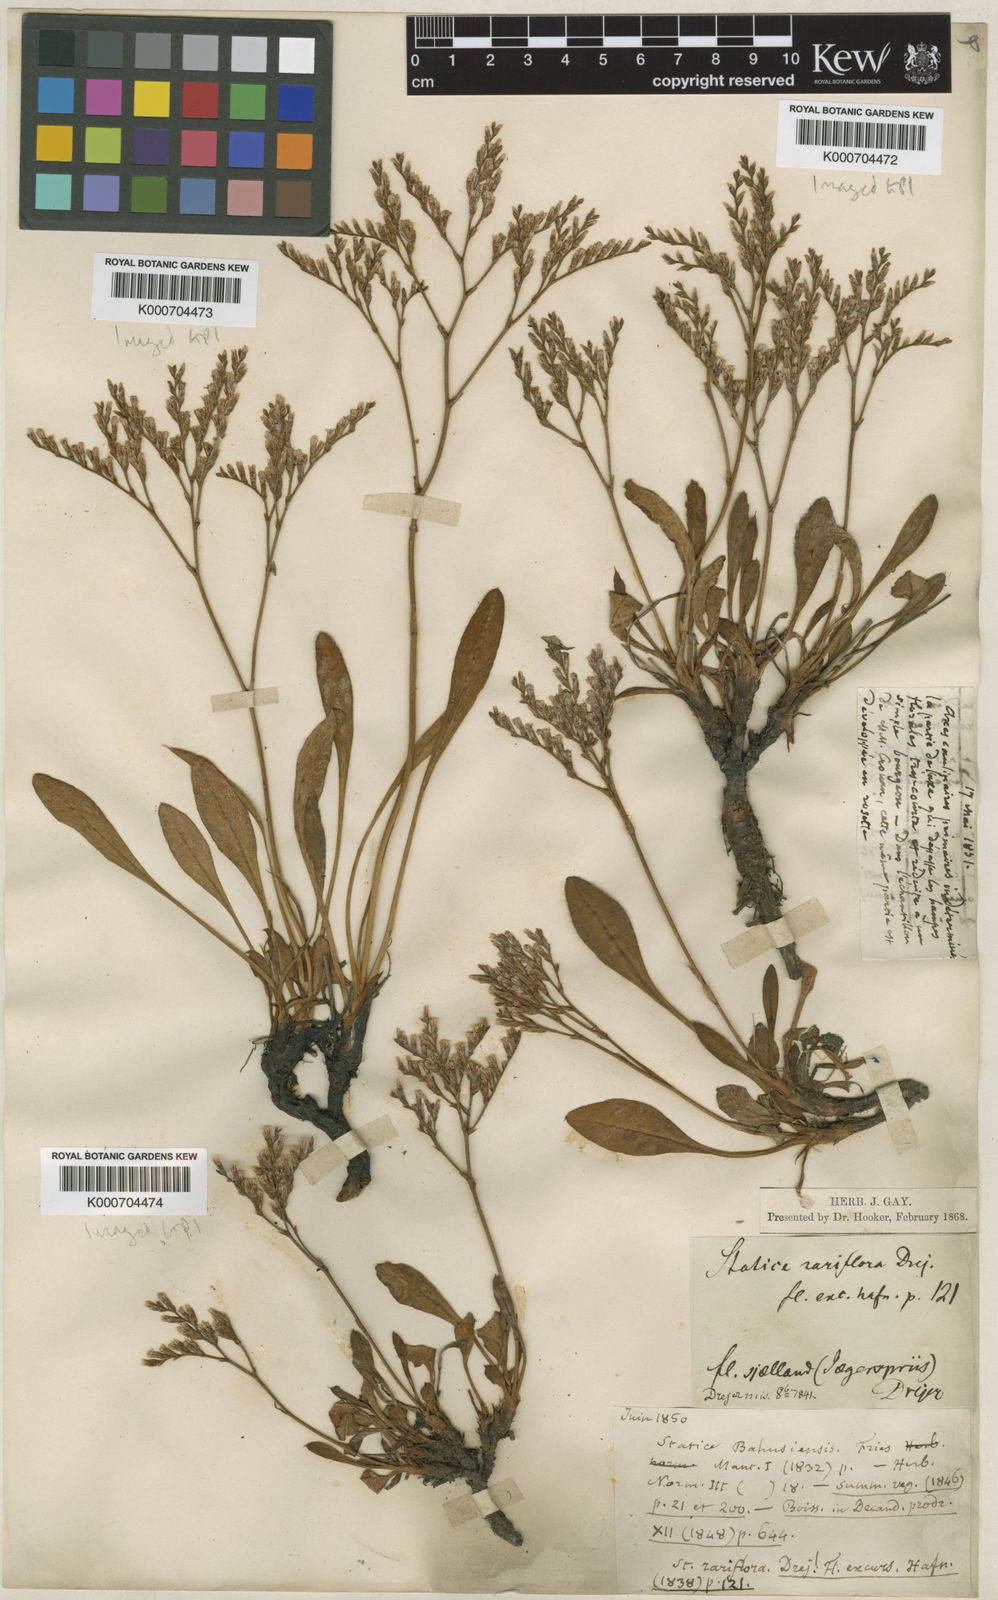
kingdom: Plantae
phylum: Tracheophyta
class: Magnoliopsida
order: Caryophyllales
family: Plumbaginaceae
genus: Limonium
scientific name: Limonium humile
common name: Lax-flowered sea-lavender
